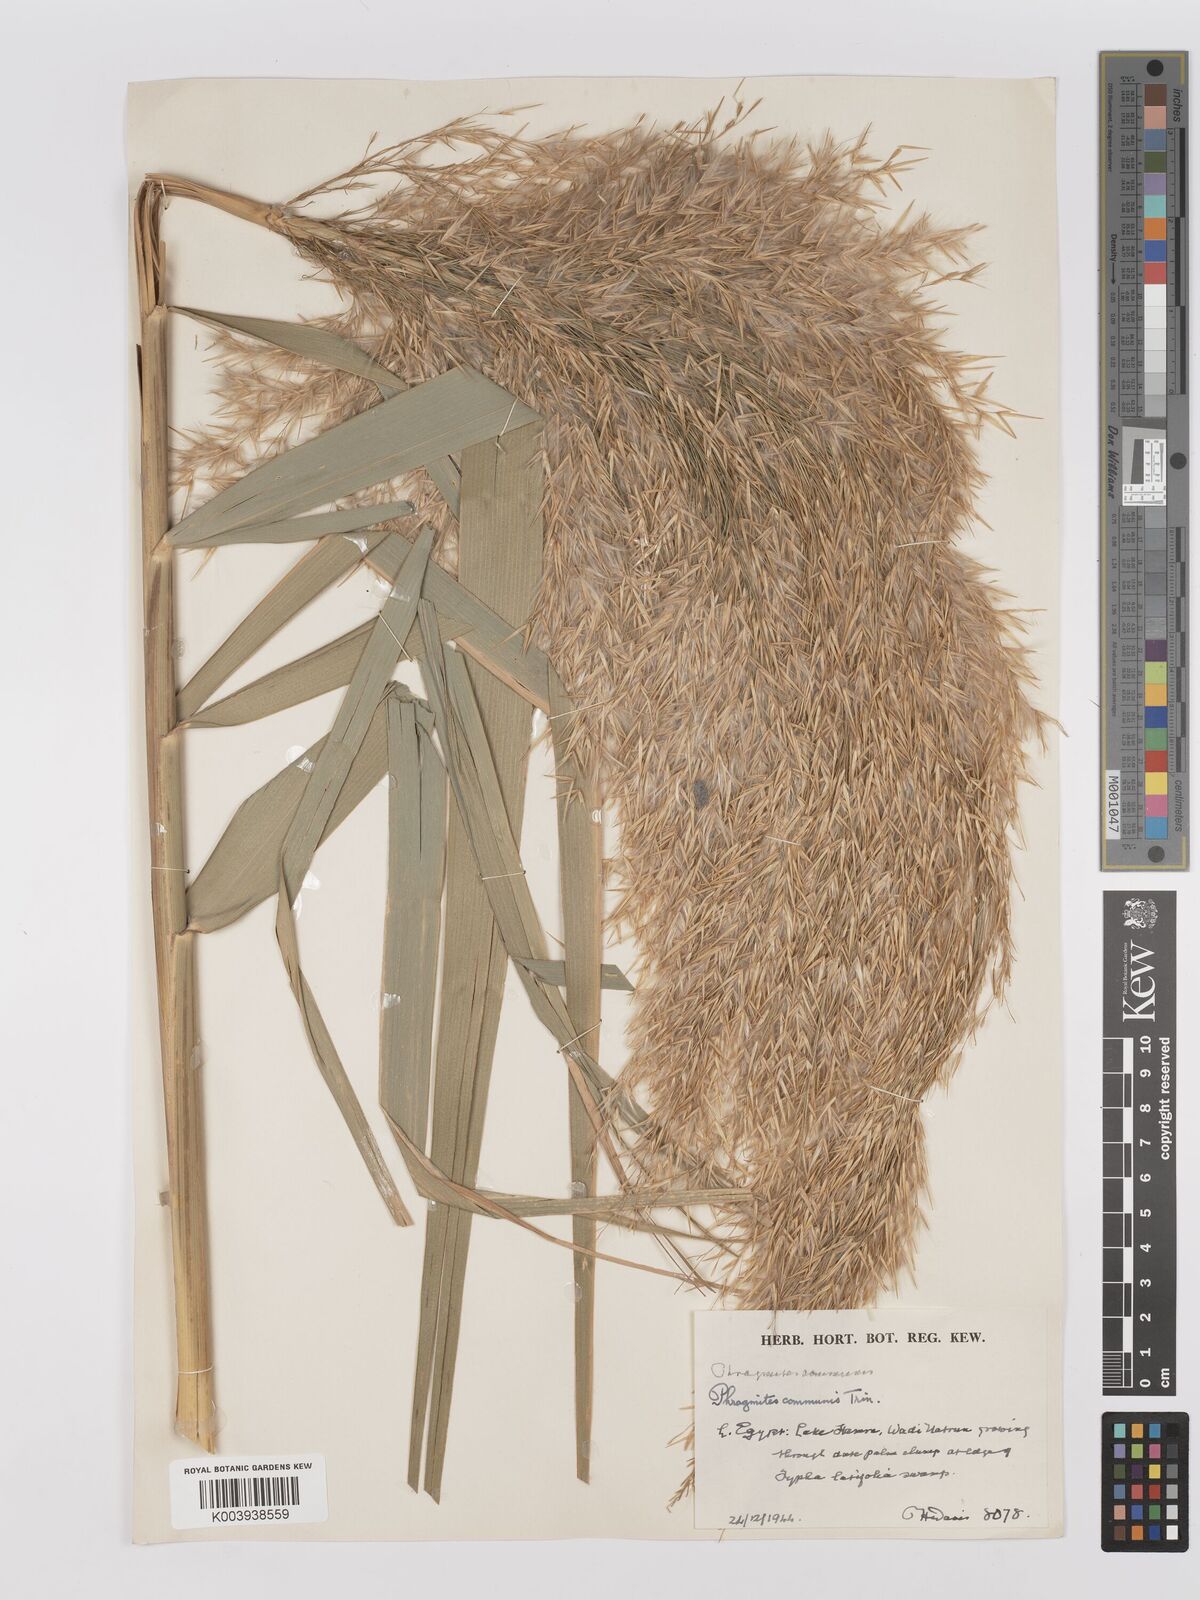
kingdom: Plantae
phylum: Tracheophyta
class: Liliopsida
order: Poales
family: Poaceae
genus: Phragmites
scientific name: Phragmites australis
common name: Common reed
